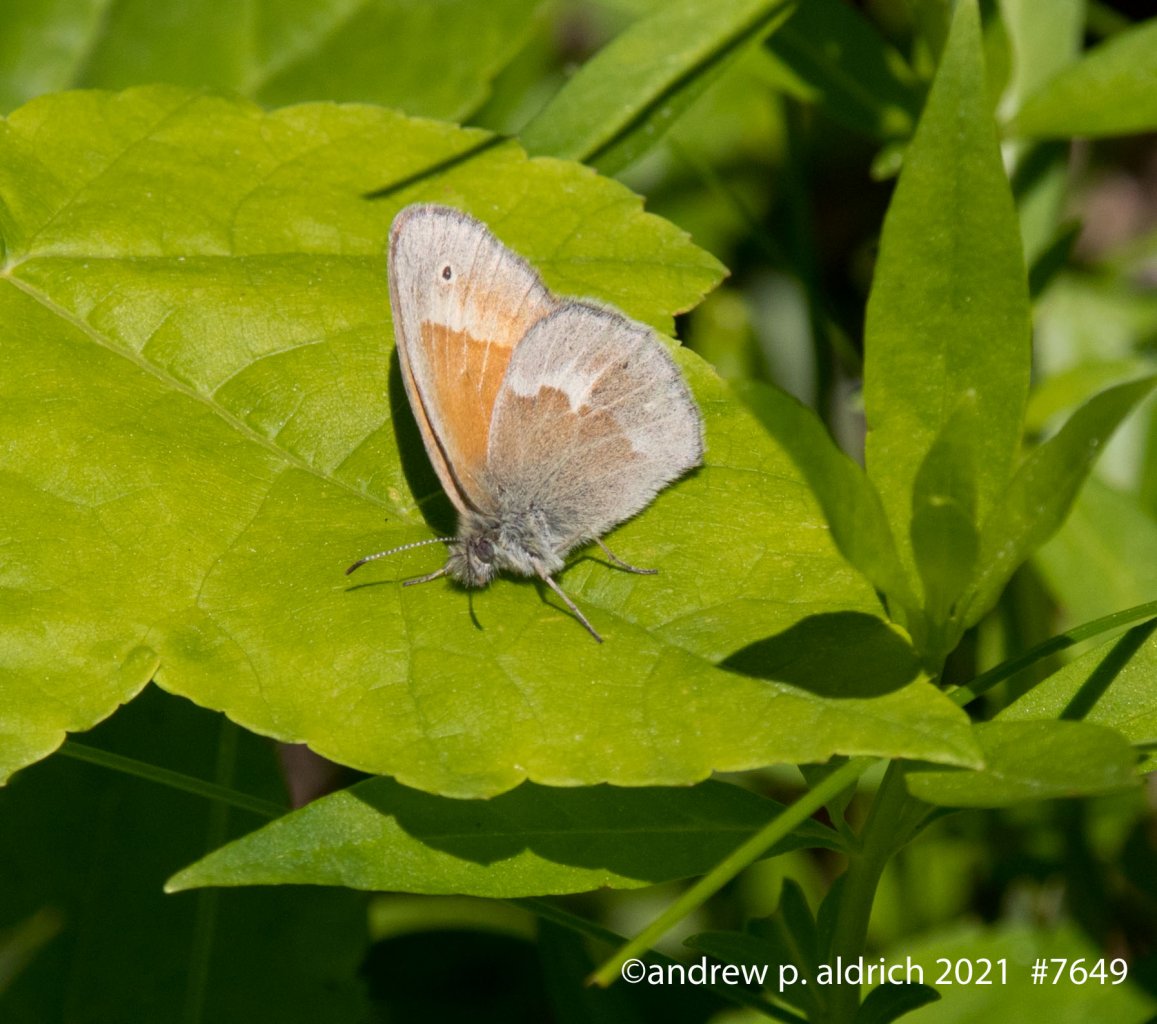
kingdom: Animalia
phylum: Arthropoda
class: Insecta
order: Lepidoptera
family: Nymphalidae
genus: Coenonympha
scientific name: Coenonympha tullia
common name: Large Heath
